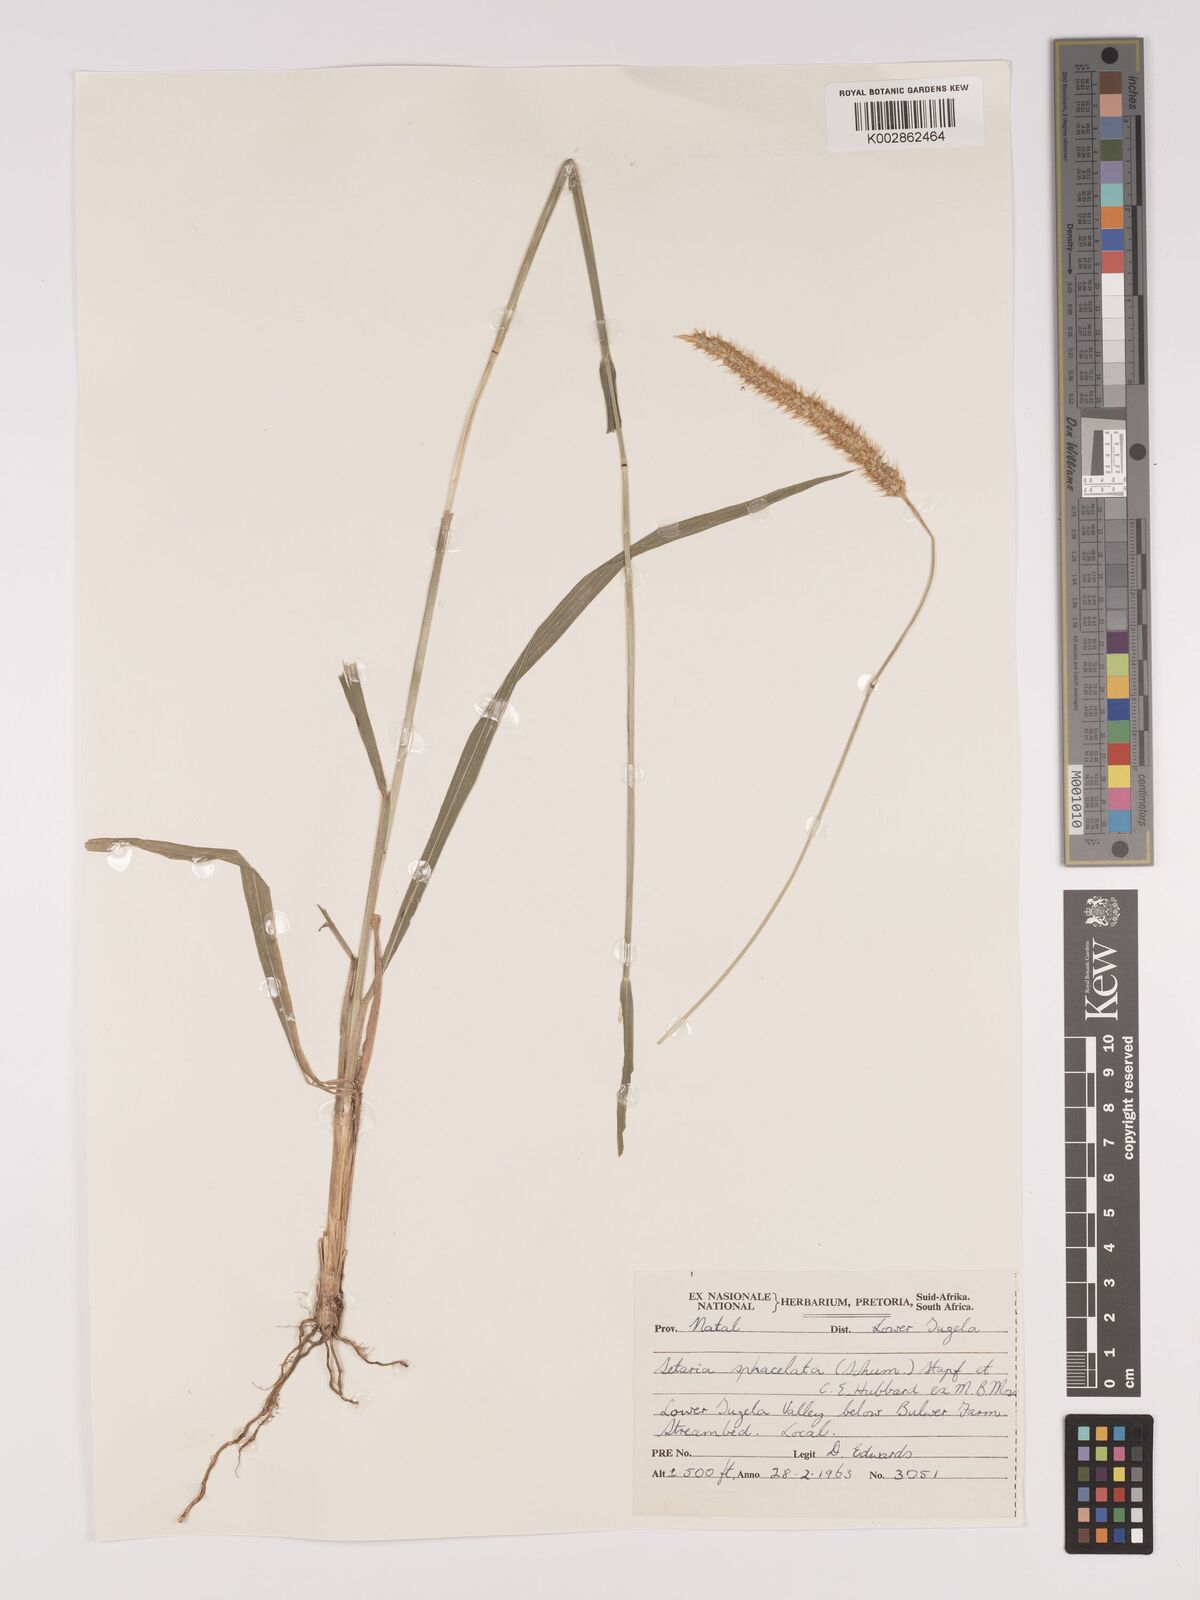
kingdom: Plantae
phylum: Tracheophyta
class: Liliopsida
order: Poales
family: Poaceae
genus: Setaria
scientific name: Setaria sphacelata
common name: African bristlegrass
